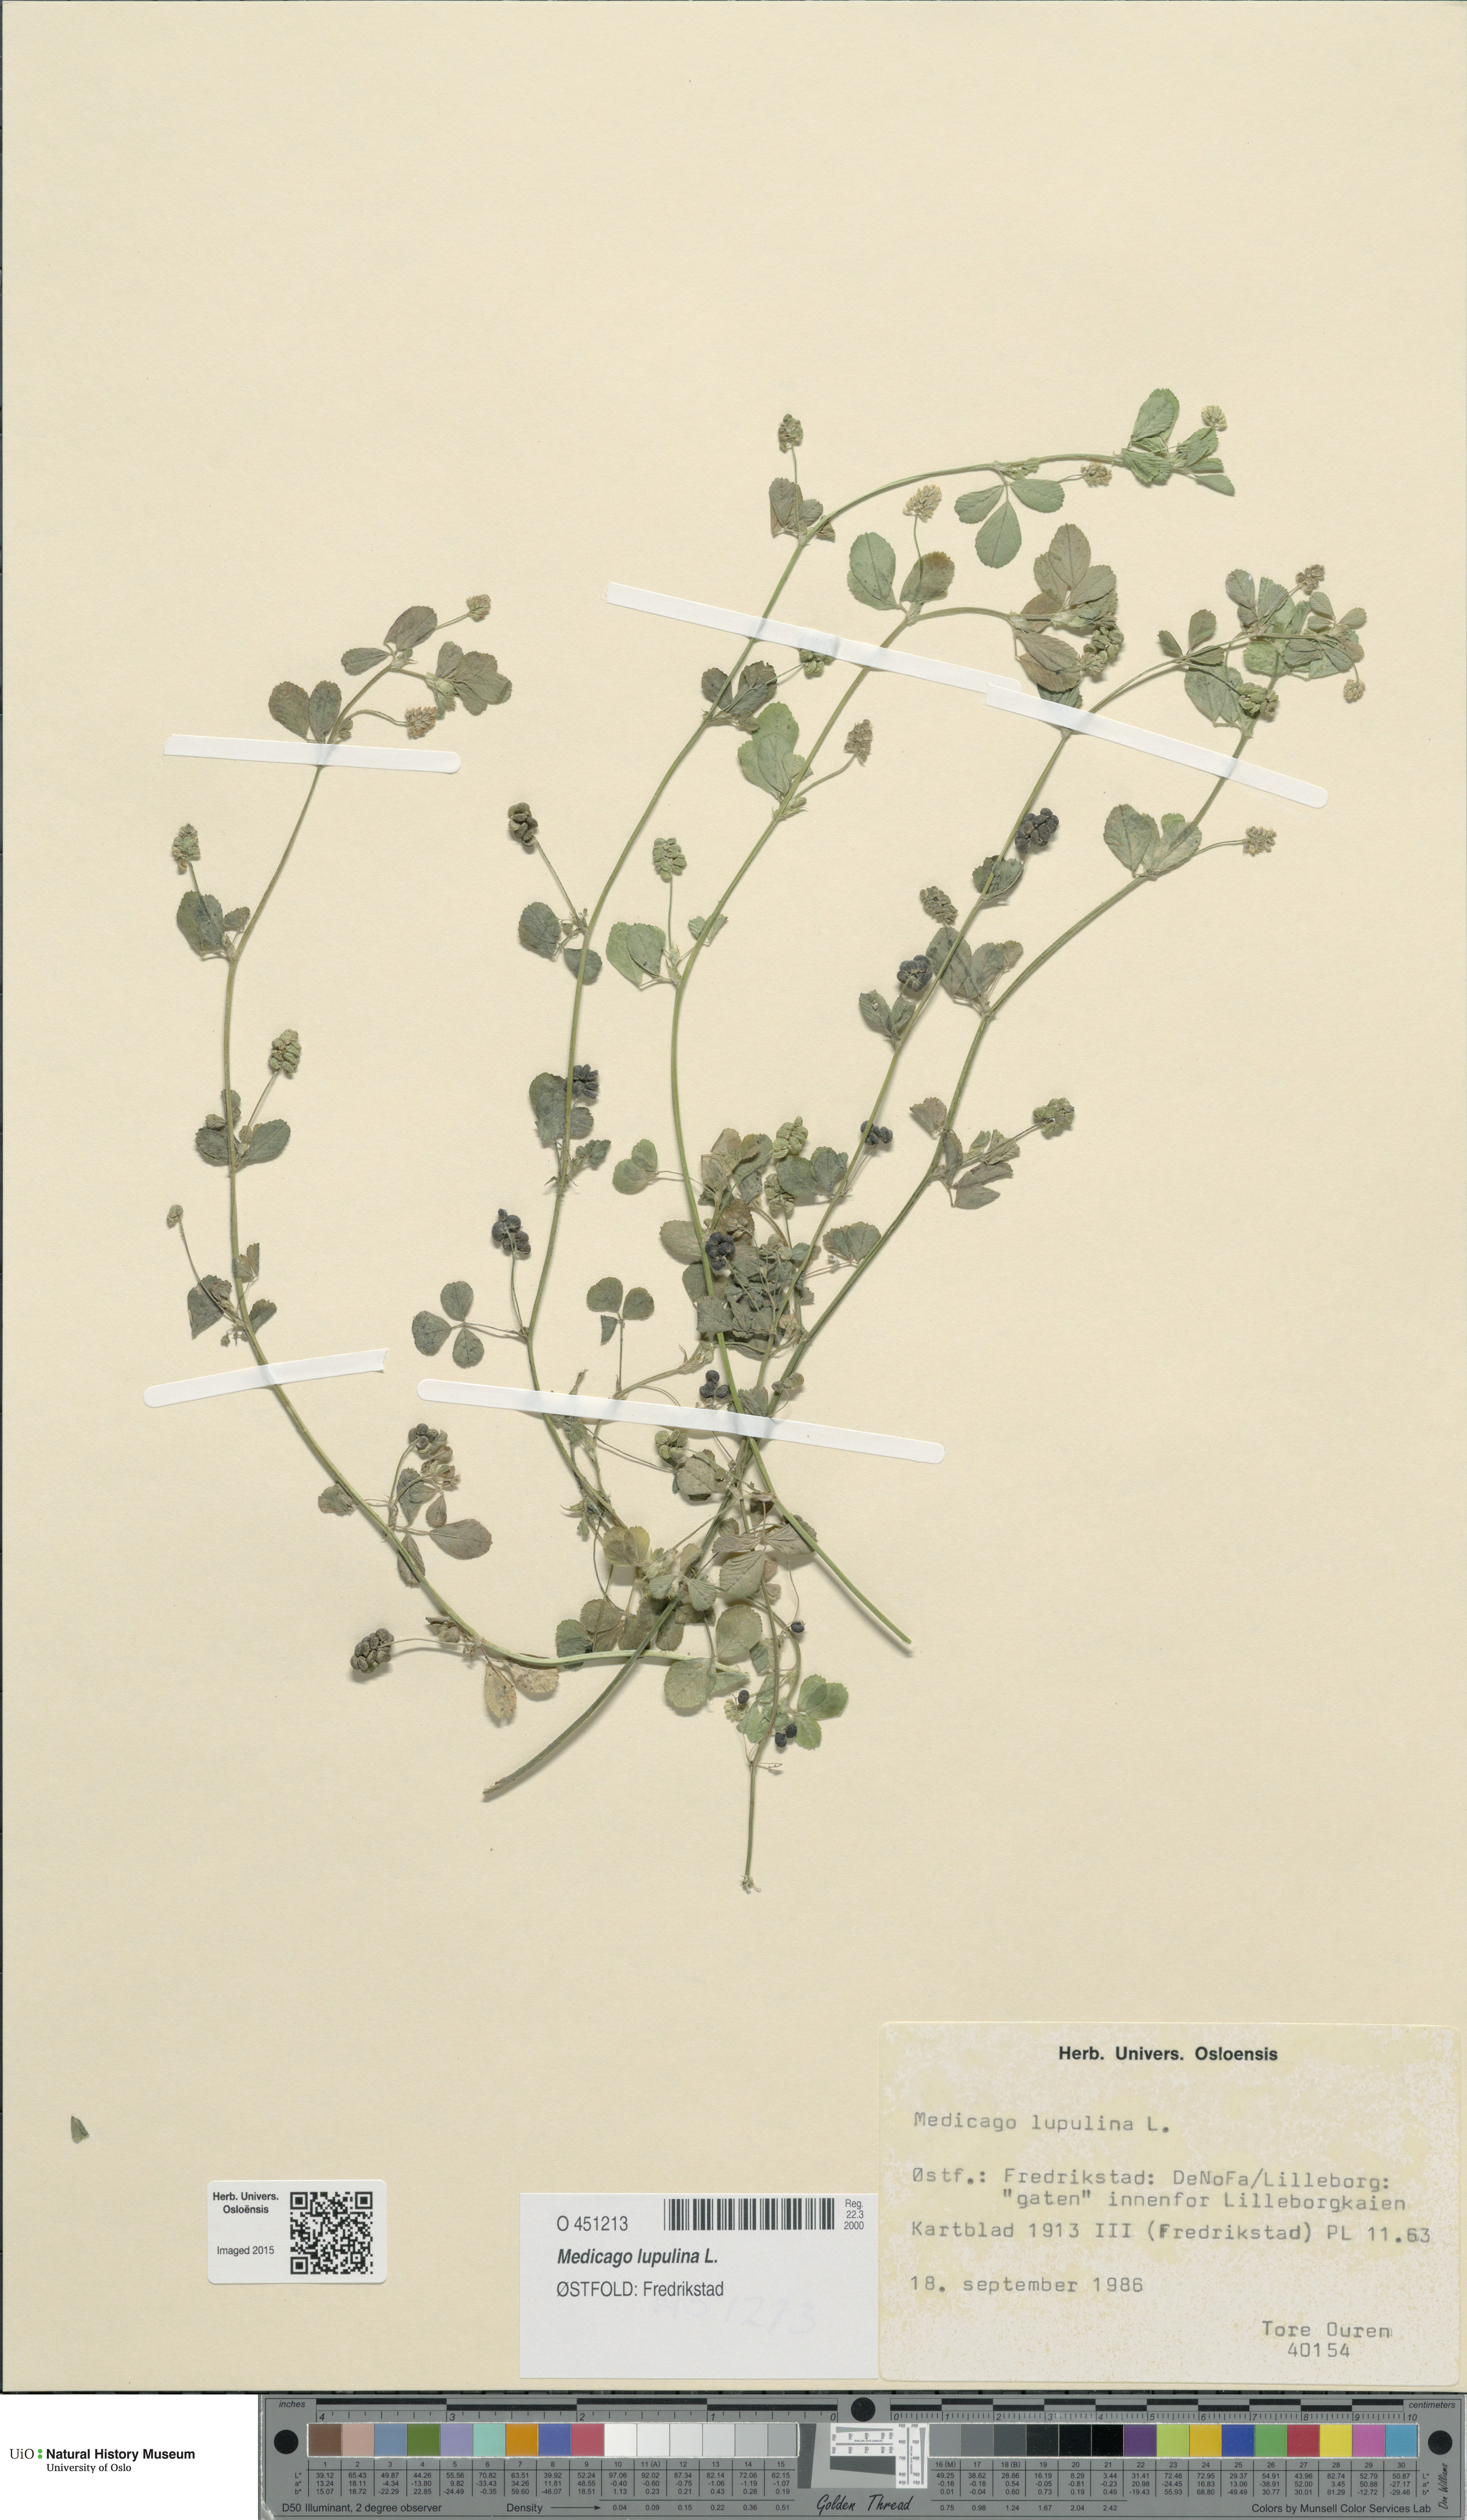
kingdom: Plantae
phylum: Tracheophyta
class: Magnoliopsida
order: Fabales
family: Fabaceae
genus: Medicago
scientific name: Medicago lupulina
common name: Black medick
